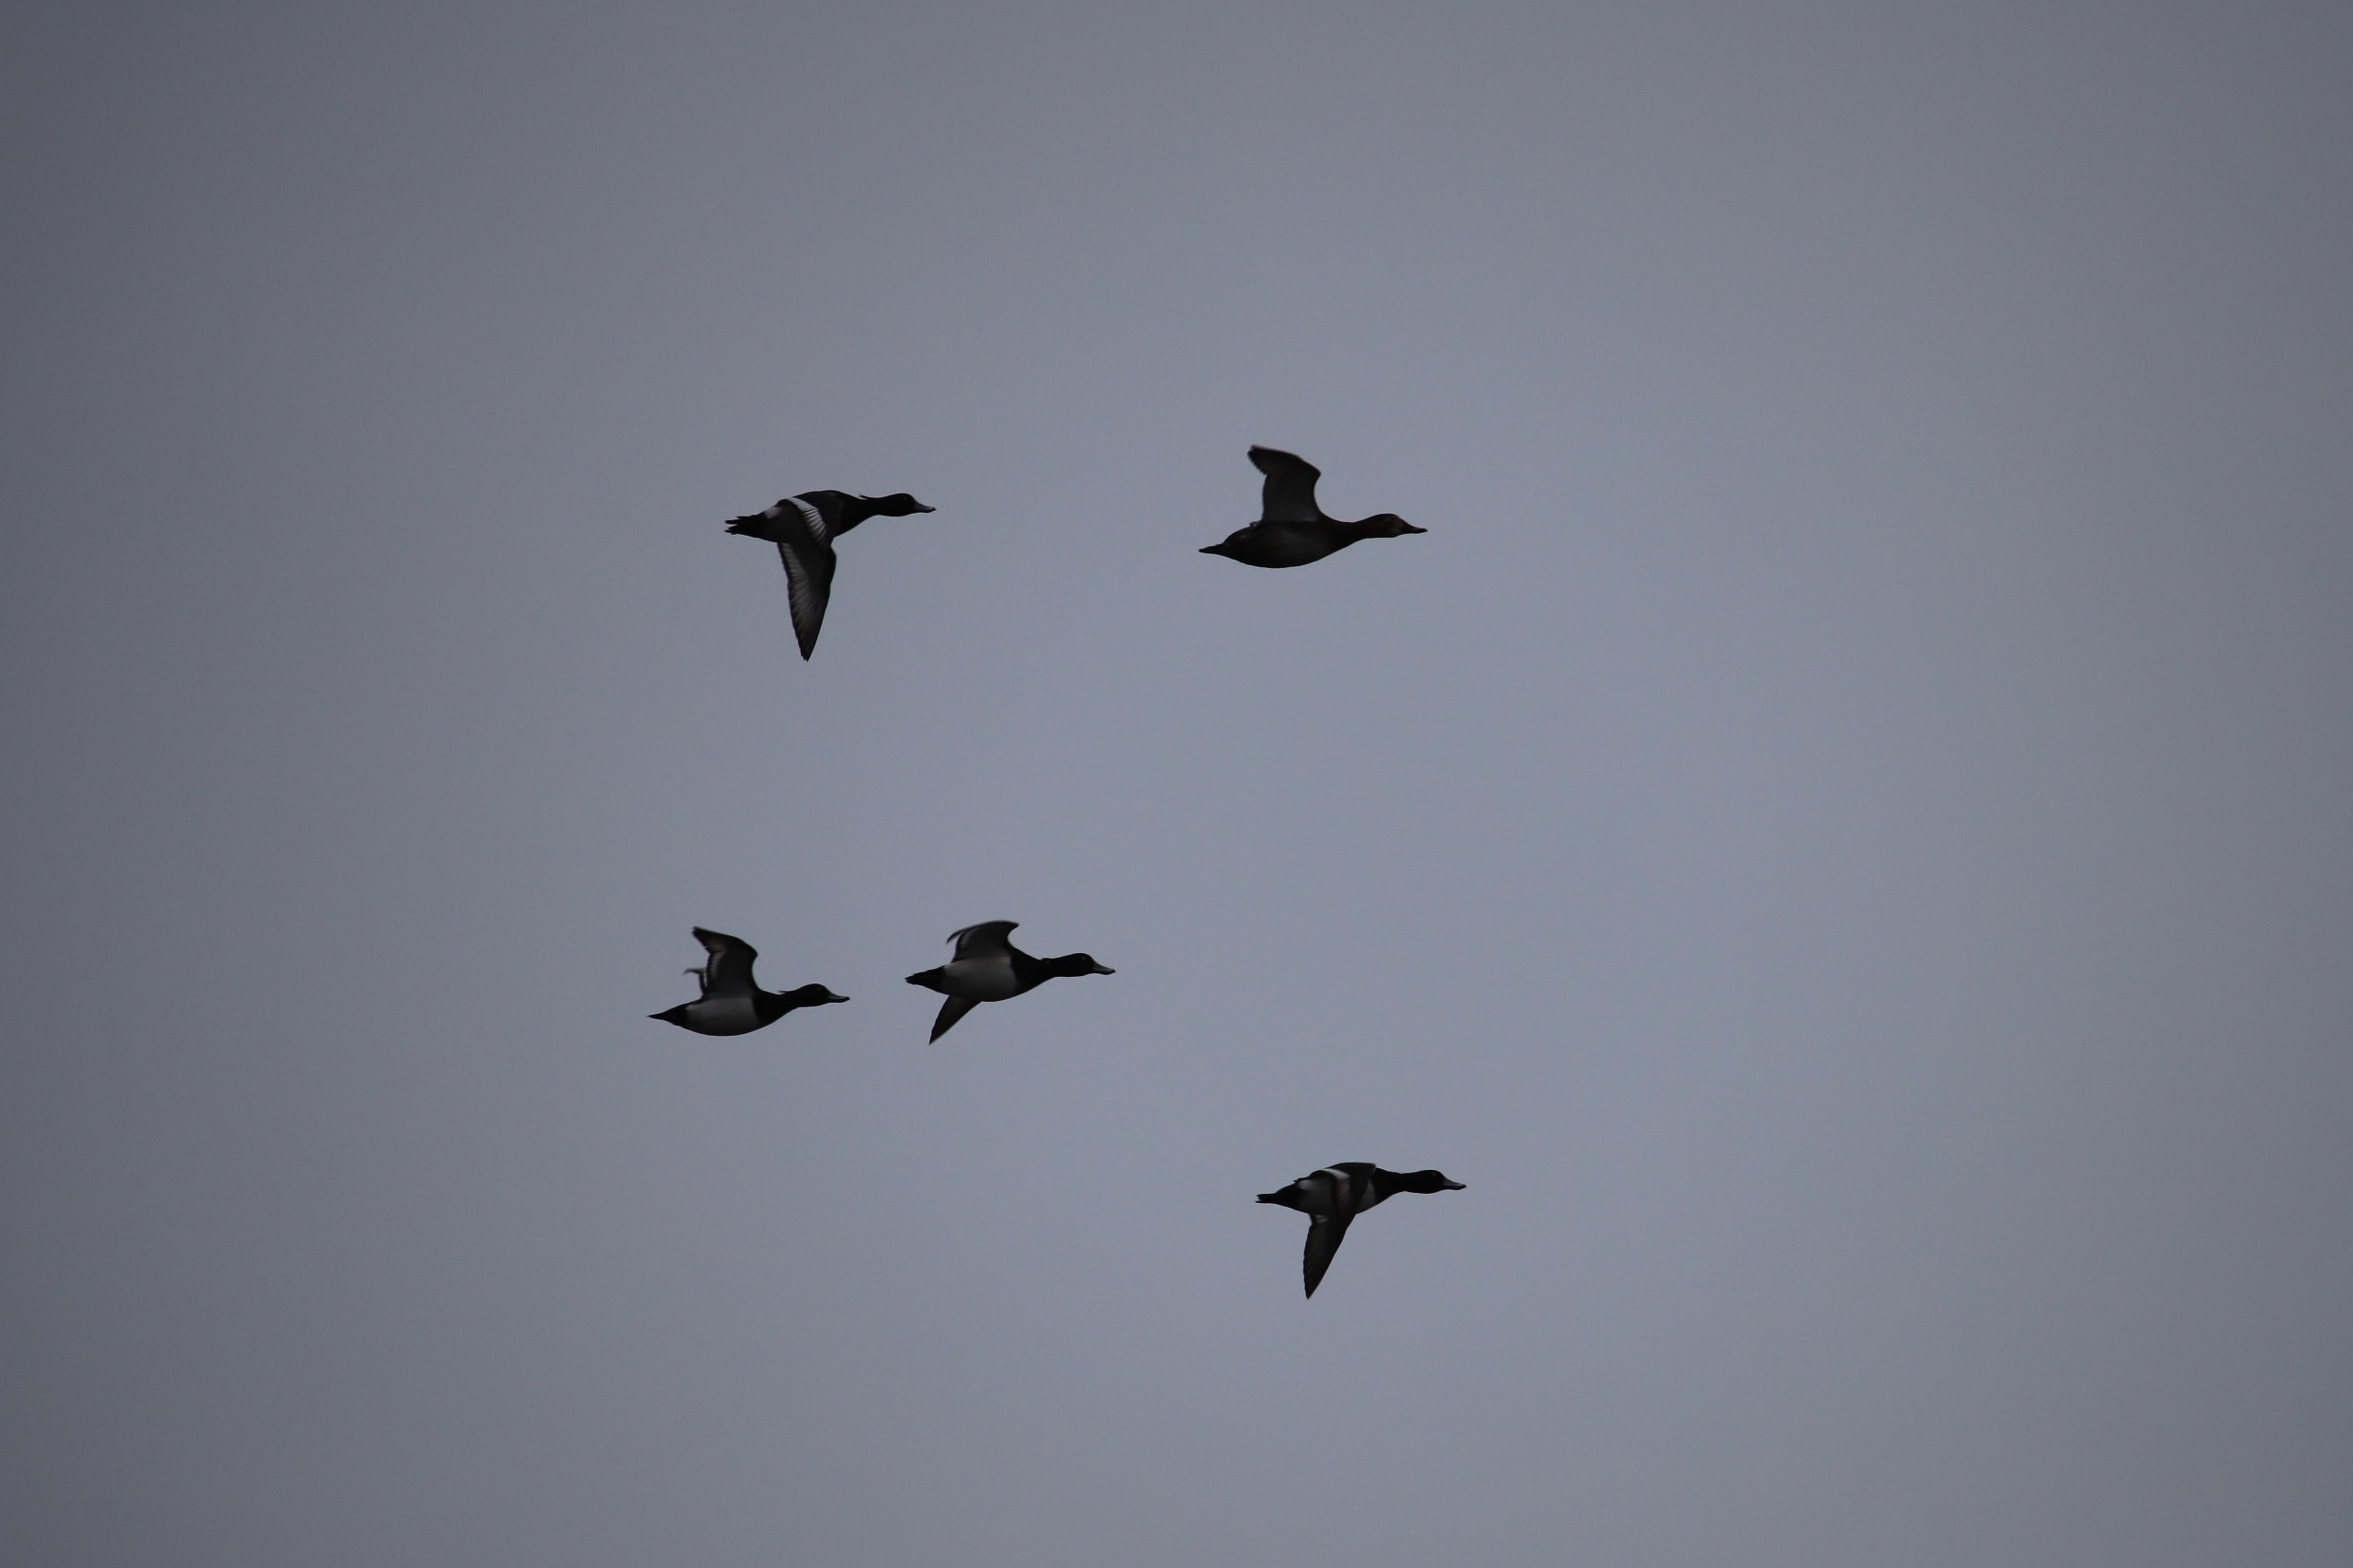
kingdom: Animalia
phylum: Chordata
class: Aves
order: Anseriformes
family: Anatidae
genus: Aythya
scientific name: Aythya fuligula
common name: Troldand
